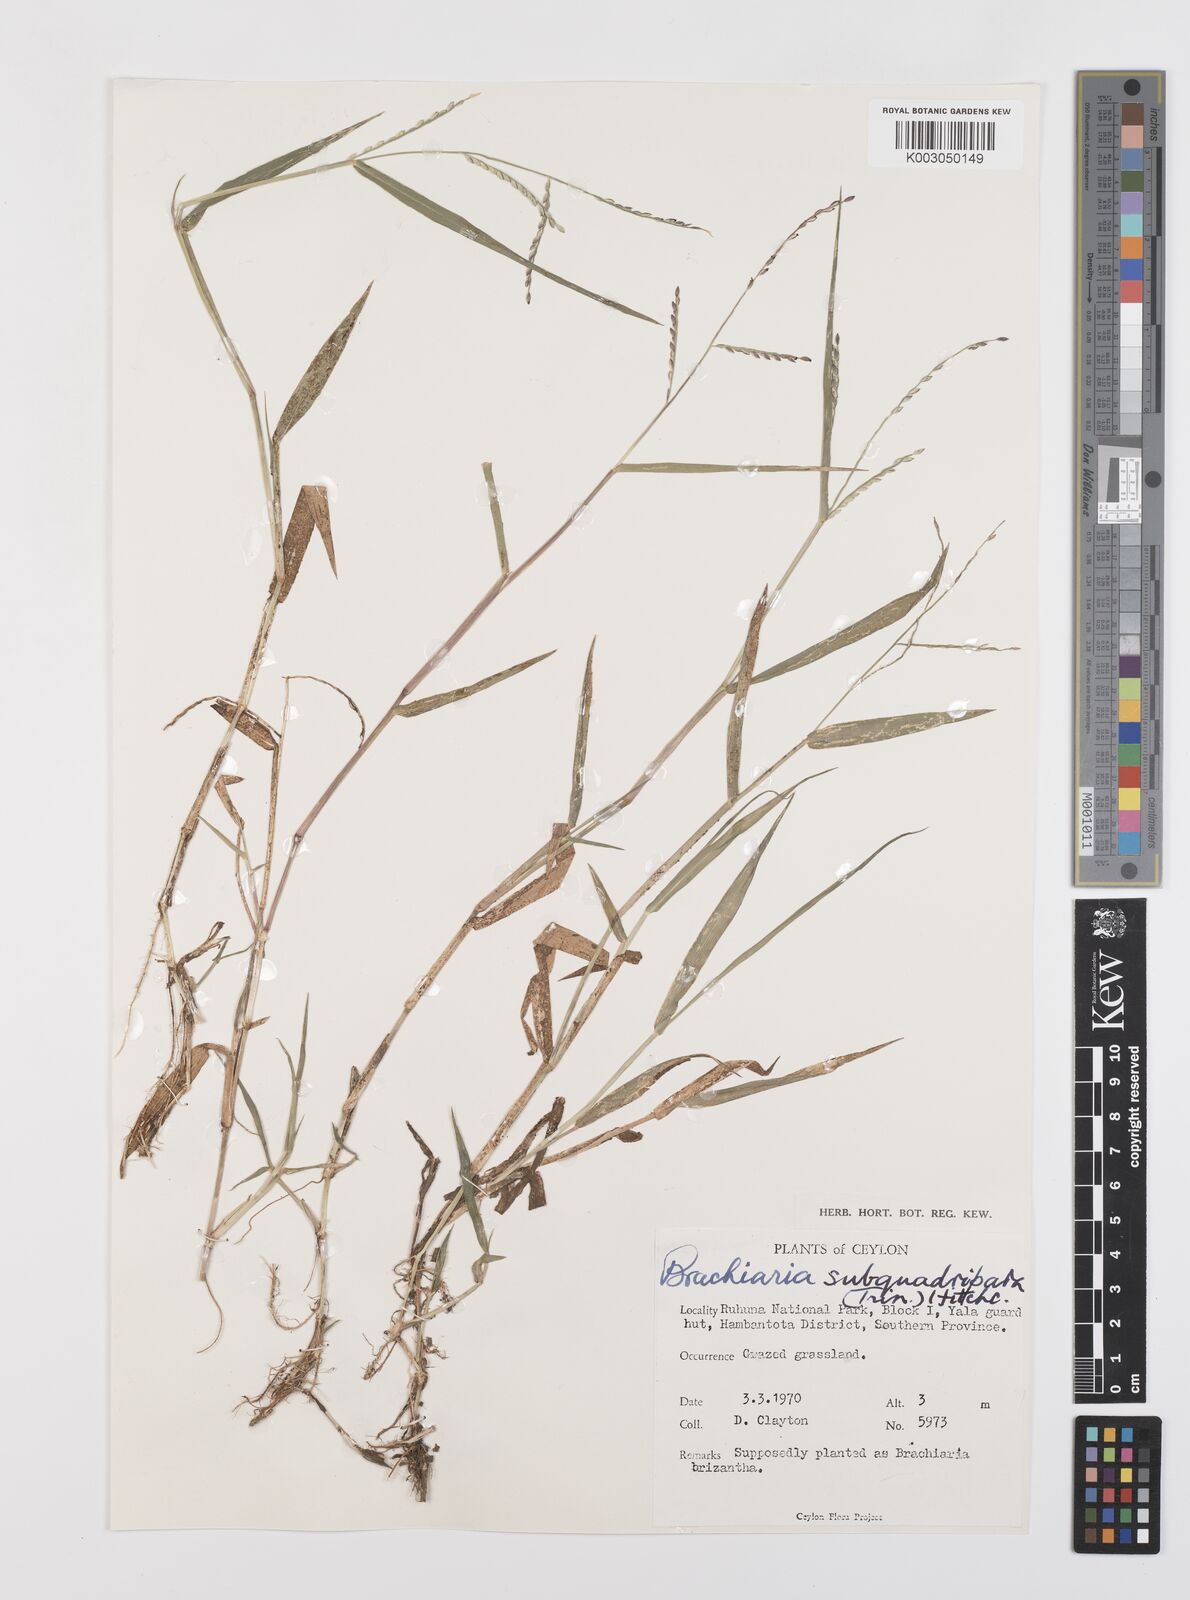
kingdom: Plantae
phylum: Tracheophyta
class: Liliopsida
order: Poales
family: Poaceae
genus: Urochloa
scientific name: Urochloa subquadripara
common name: Armgrass millet
